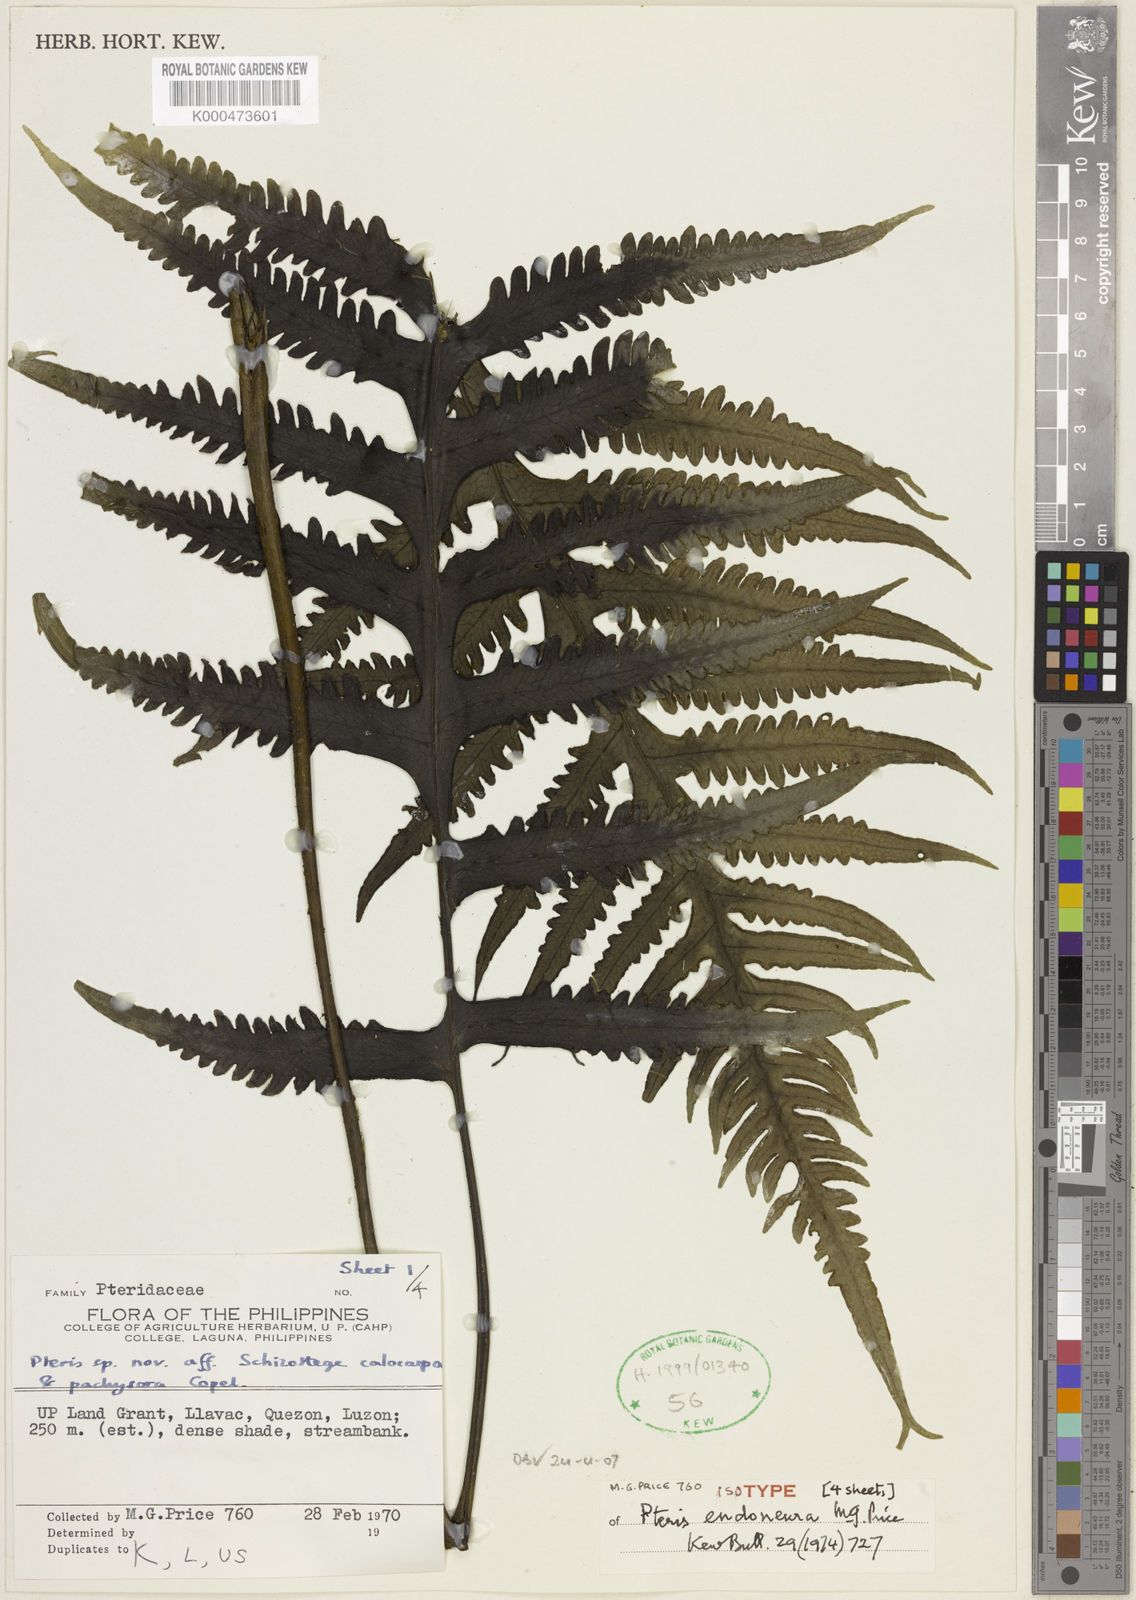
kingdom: Plantae
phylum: Tracheophyta
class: Polypodiopsida
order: Polypodiales
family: Pteridaceae
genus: Pteris
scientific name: Pteris endoneura
